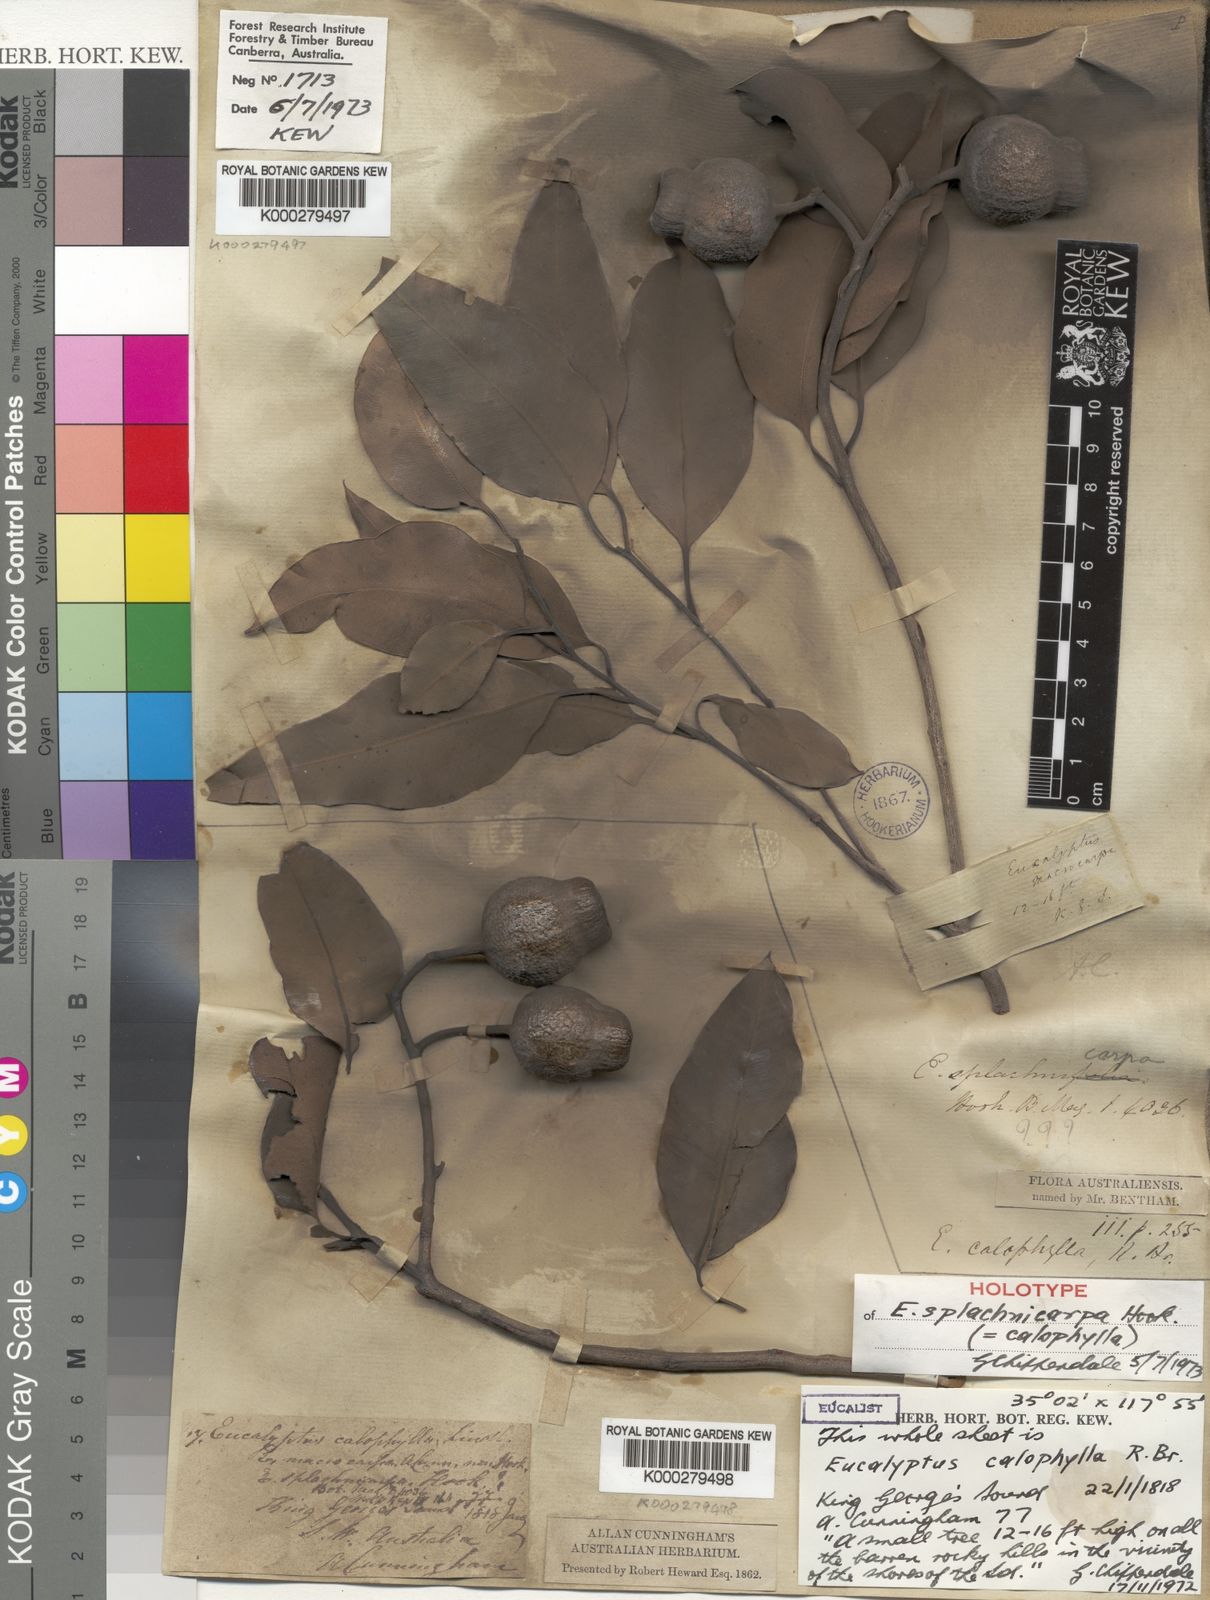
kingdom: Plantae
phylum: Tracheophyta
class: Magnoliopsida
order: Myrtales
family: Myrtaceae
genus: Corymbia
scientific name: Corymbia calophylla
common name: Marri
